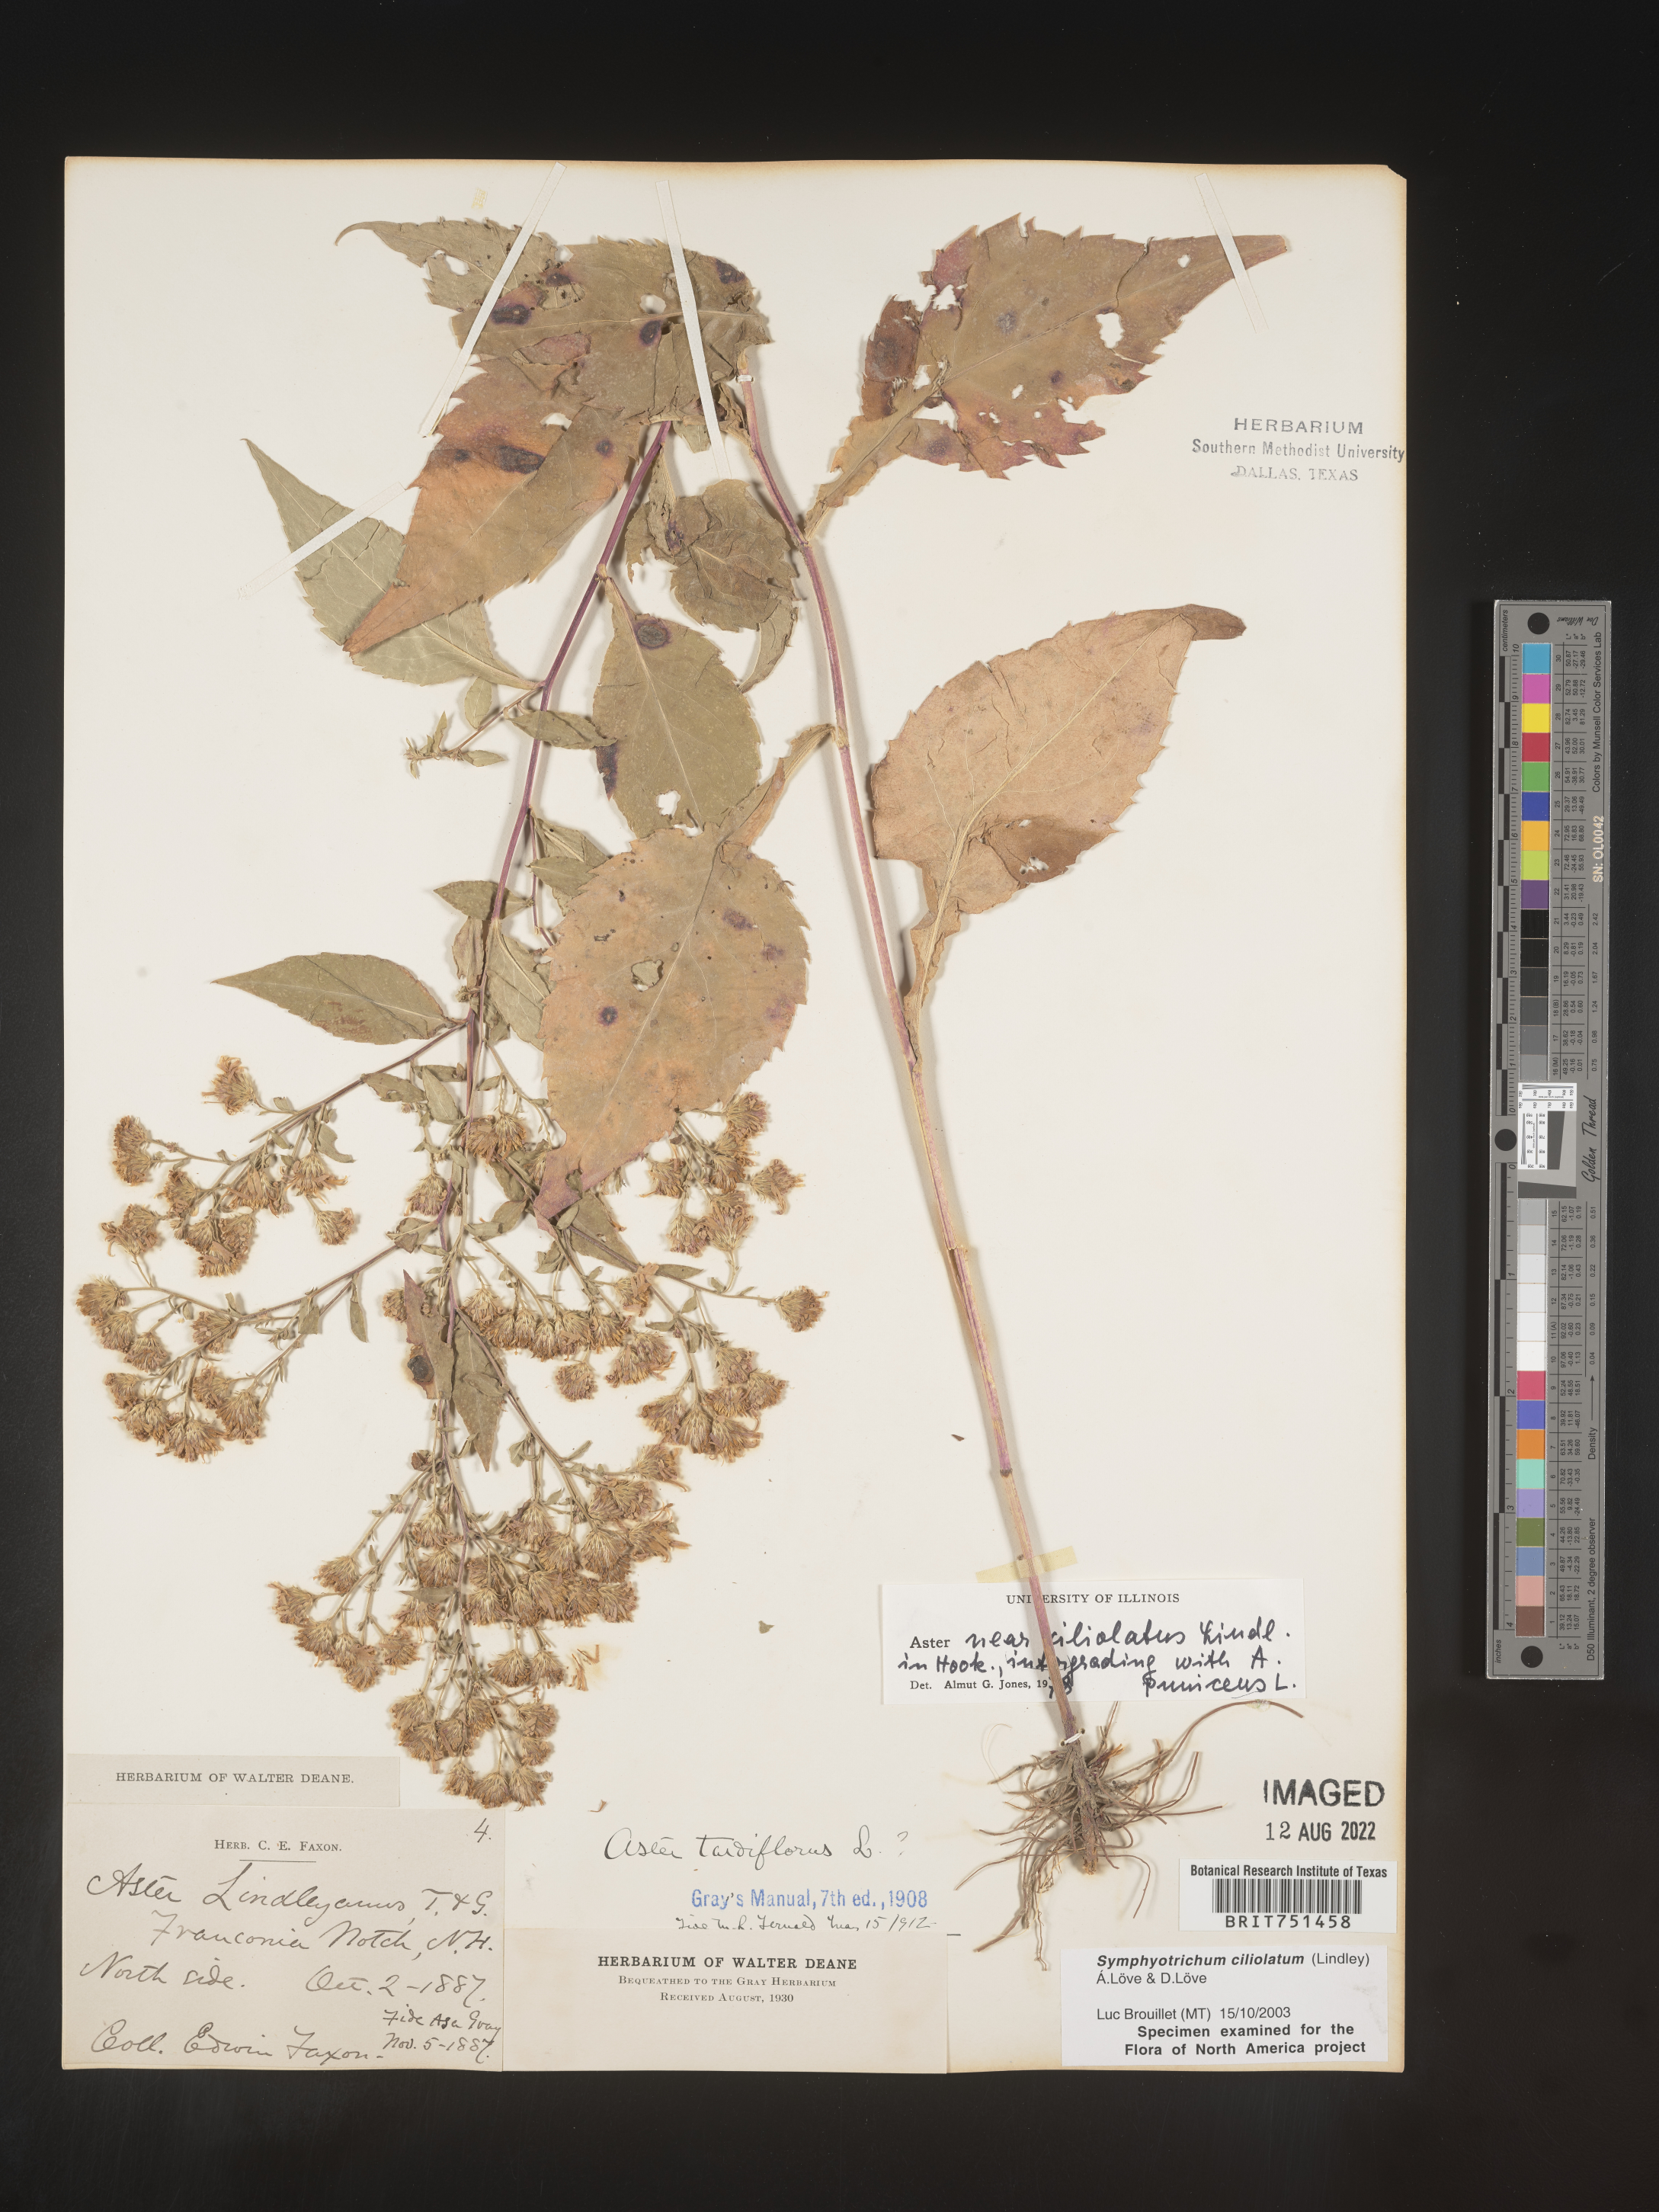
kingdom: Plantae
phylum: Tracheophyta
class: Magnoliopsida
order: Asterales
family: Asteraceae
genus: Symphyotrichum
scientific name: Symphyotrichum ciliolatum
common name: Fringed blue aster
